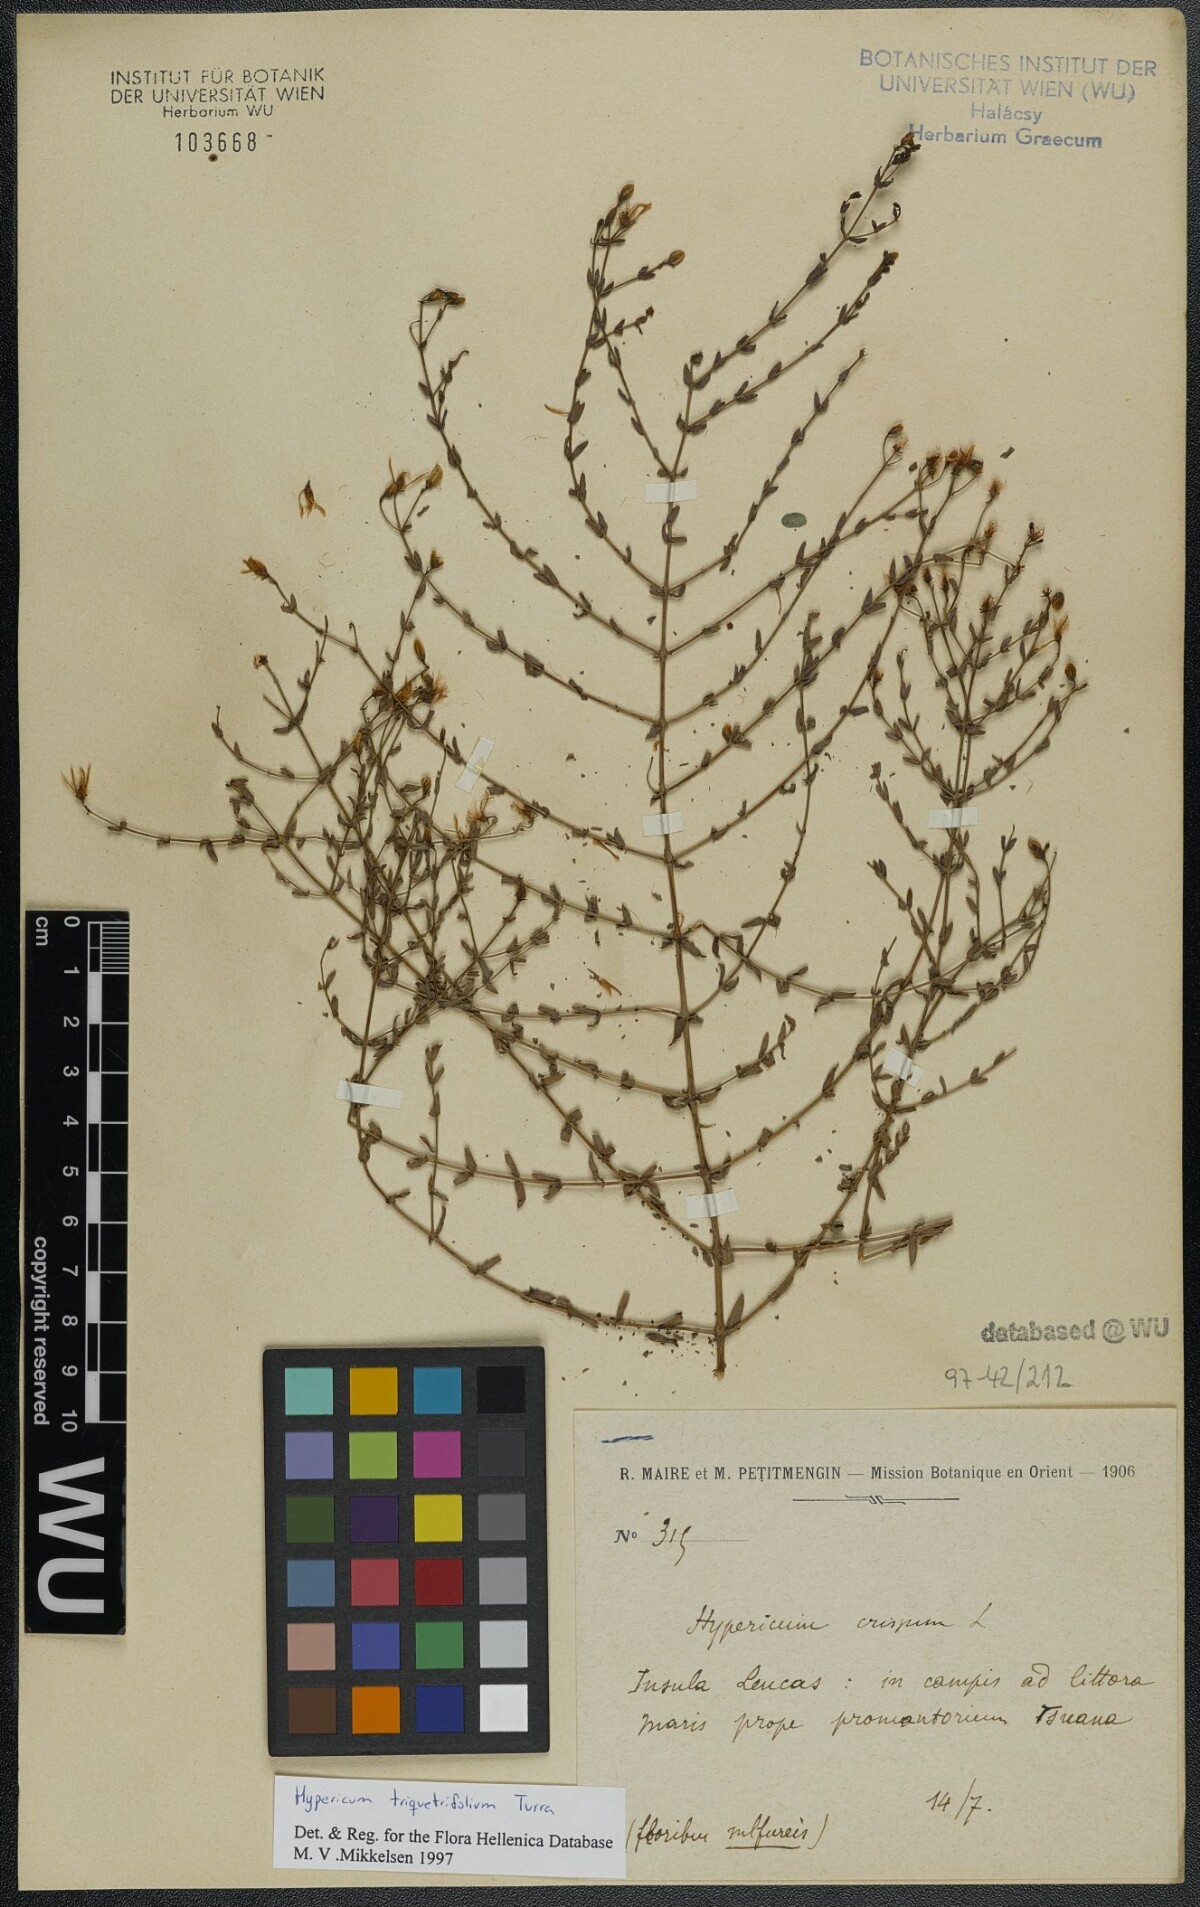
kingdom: Plantae
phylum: Tracheophyta
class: Magnoliopsida
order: Malpighiales
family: Hypericaceae
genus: Hypericum
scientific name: Hypericum triquetrifolium
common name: Tangled hypericum
